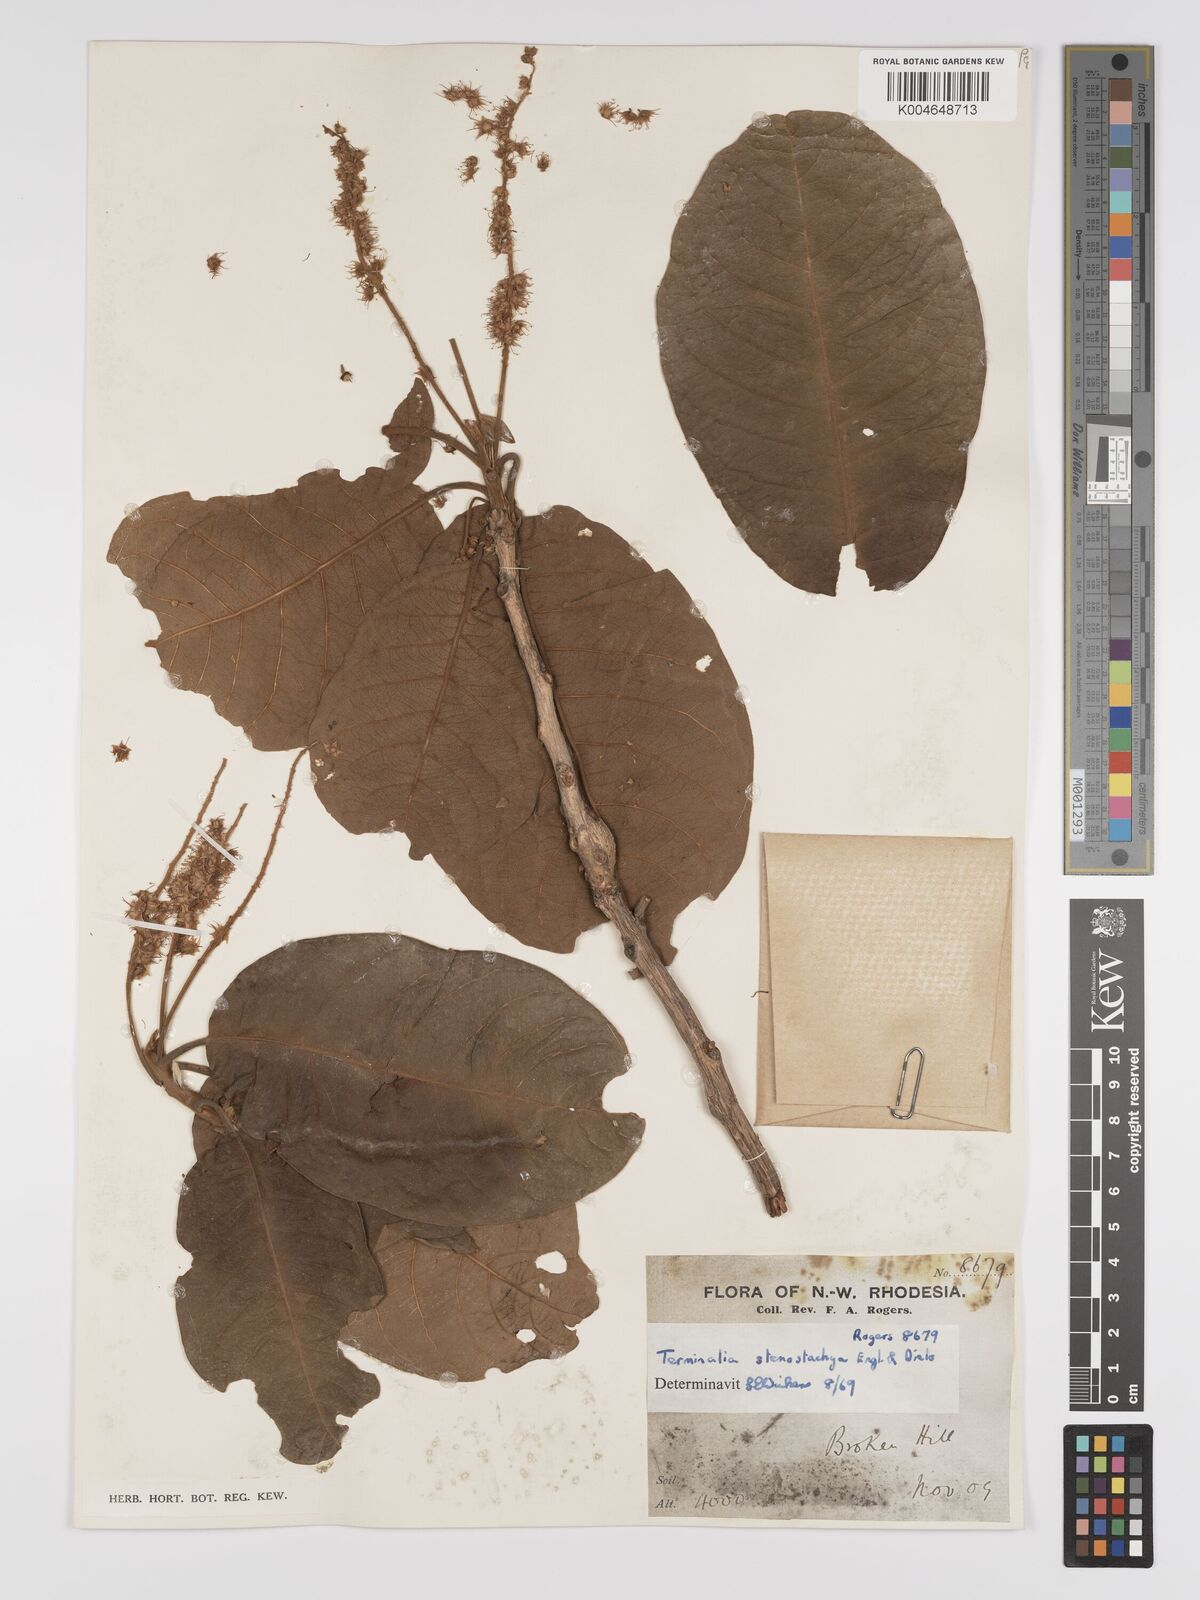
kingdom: Plantae
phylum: Tracheophyta
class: Magnoliopsida
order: Myrtales
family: Combretaceae
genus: Terminalia
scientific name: Terminalia stenostachya
